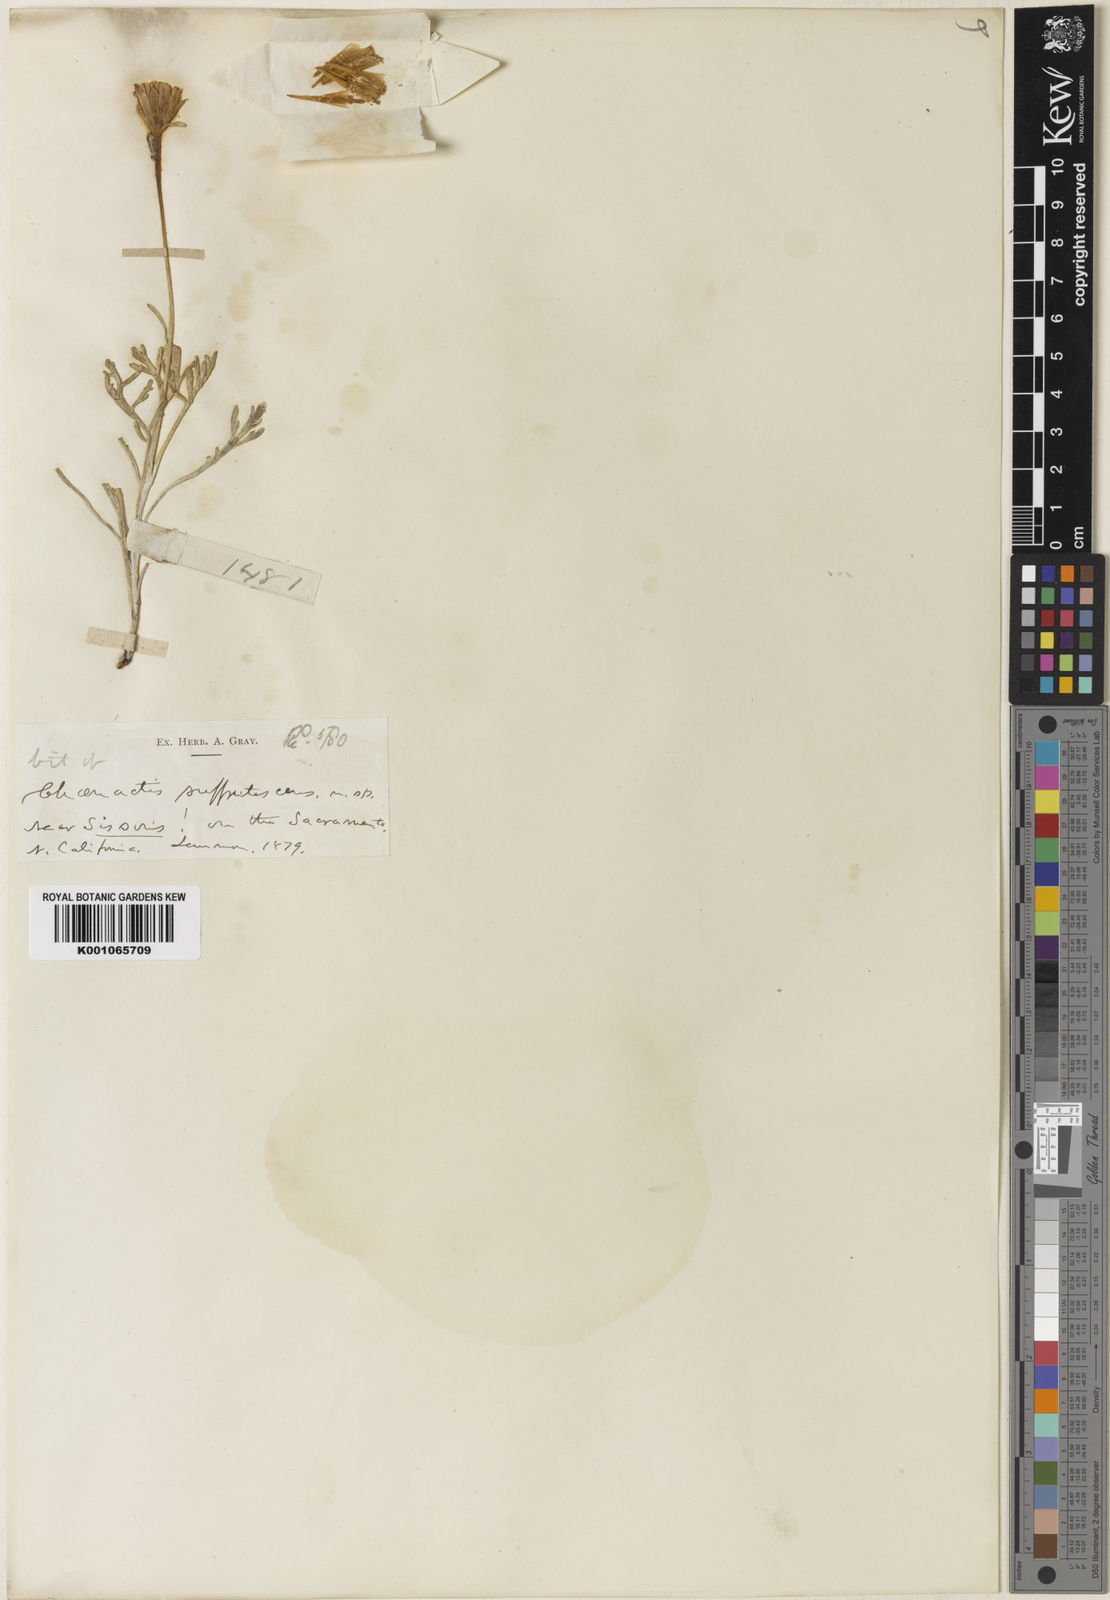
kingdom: Plantae
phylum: Tracheophyta
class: Magnoliopsida
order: Asterales
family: Asteraceae
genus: Chaenactis
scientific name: Chaenactis suffrutescens
